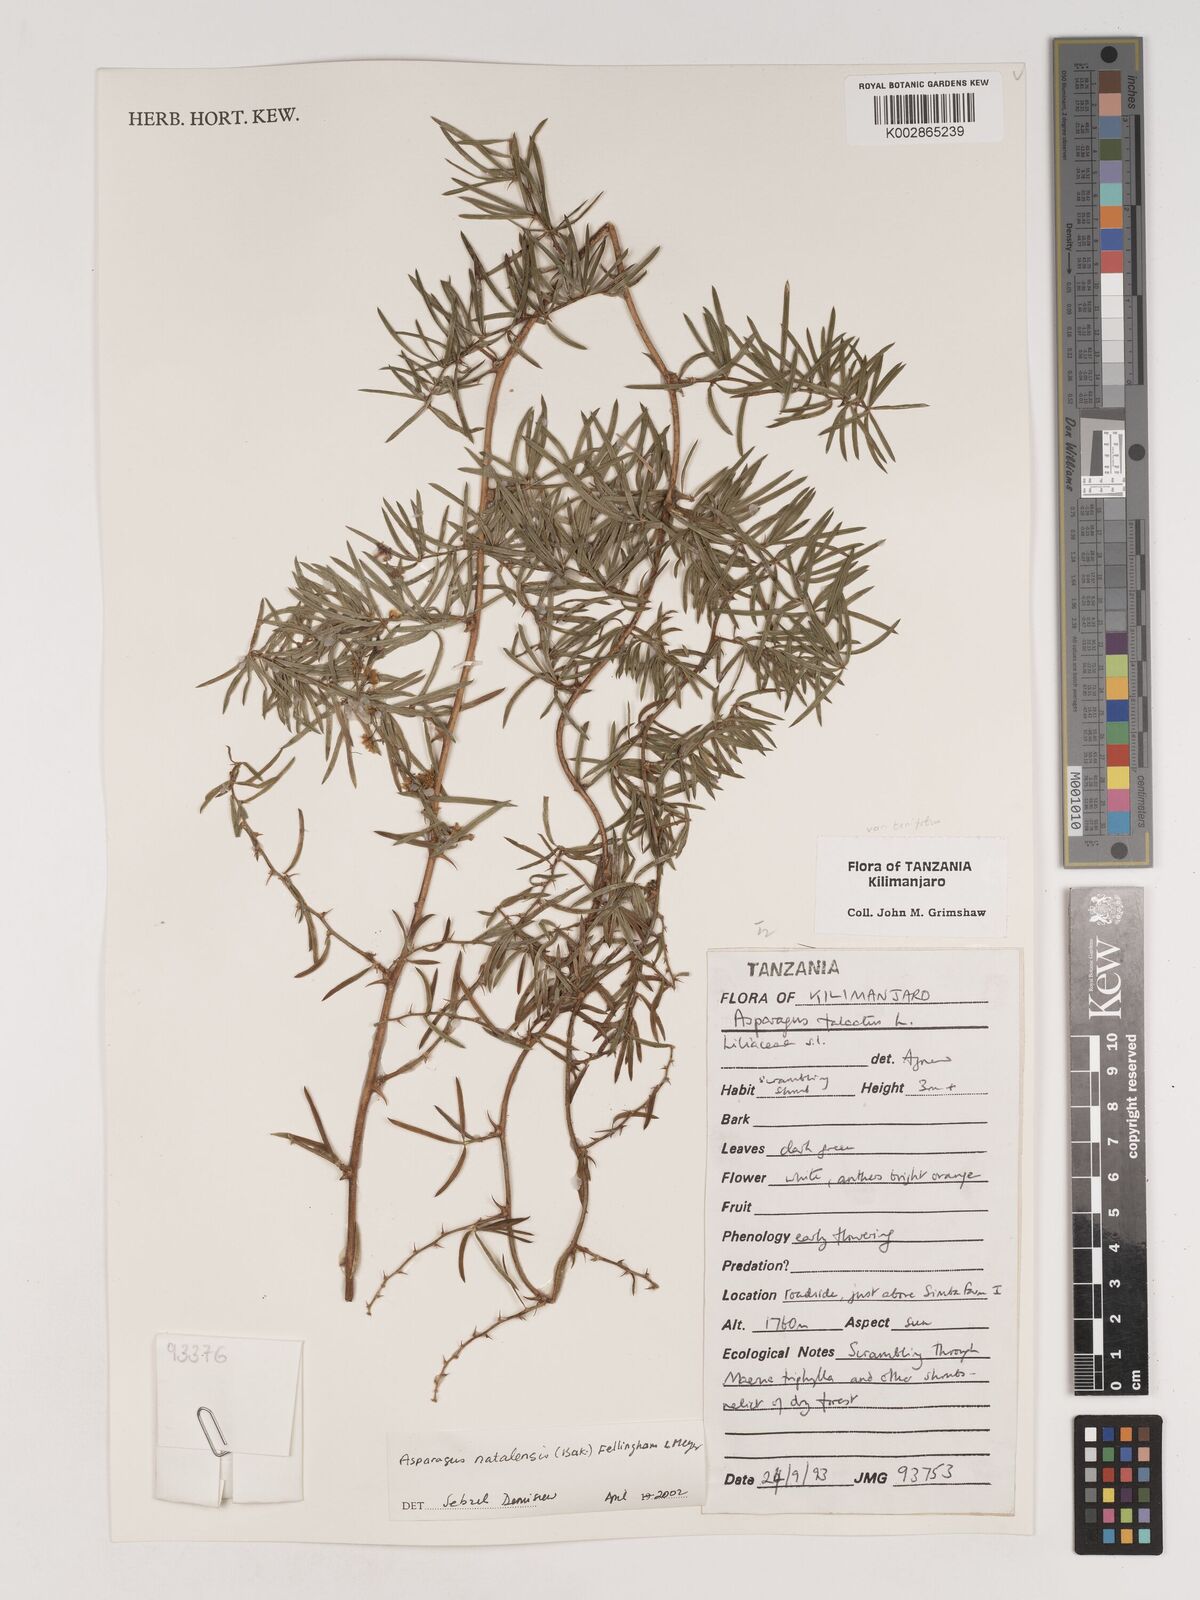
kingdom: Plantae
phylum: Tracheophyta
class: Liliopsida
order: Asparagales
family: Asparagaceae
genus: Asparagus
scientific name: Asparagus natalensis
